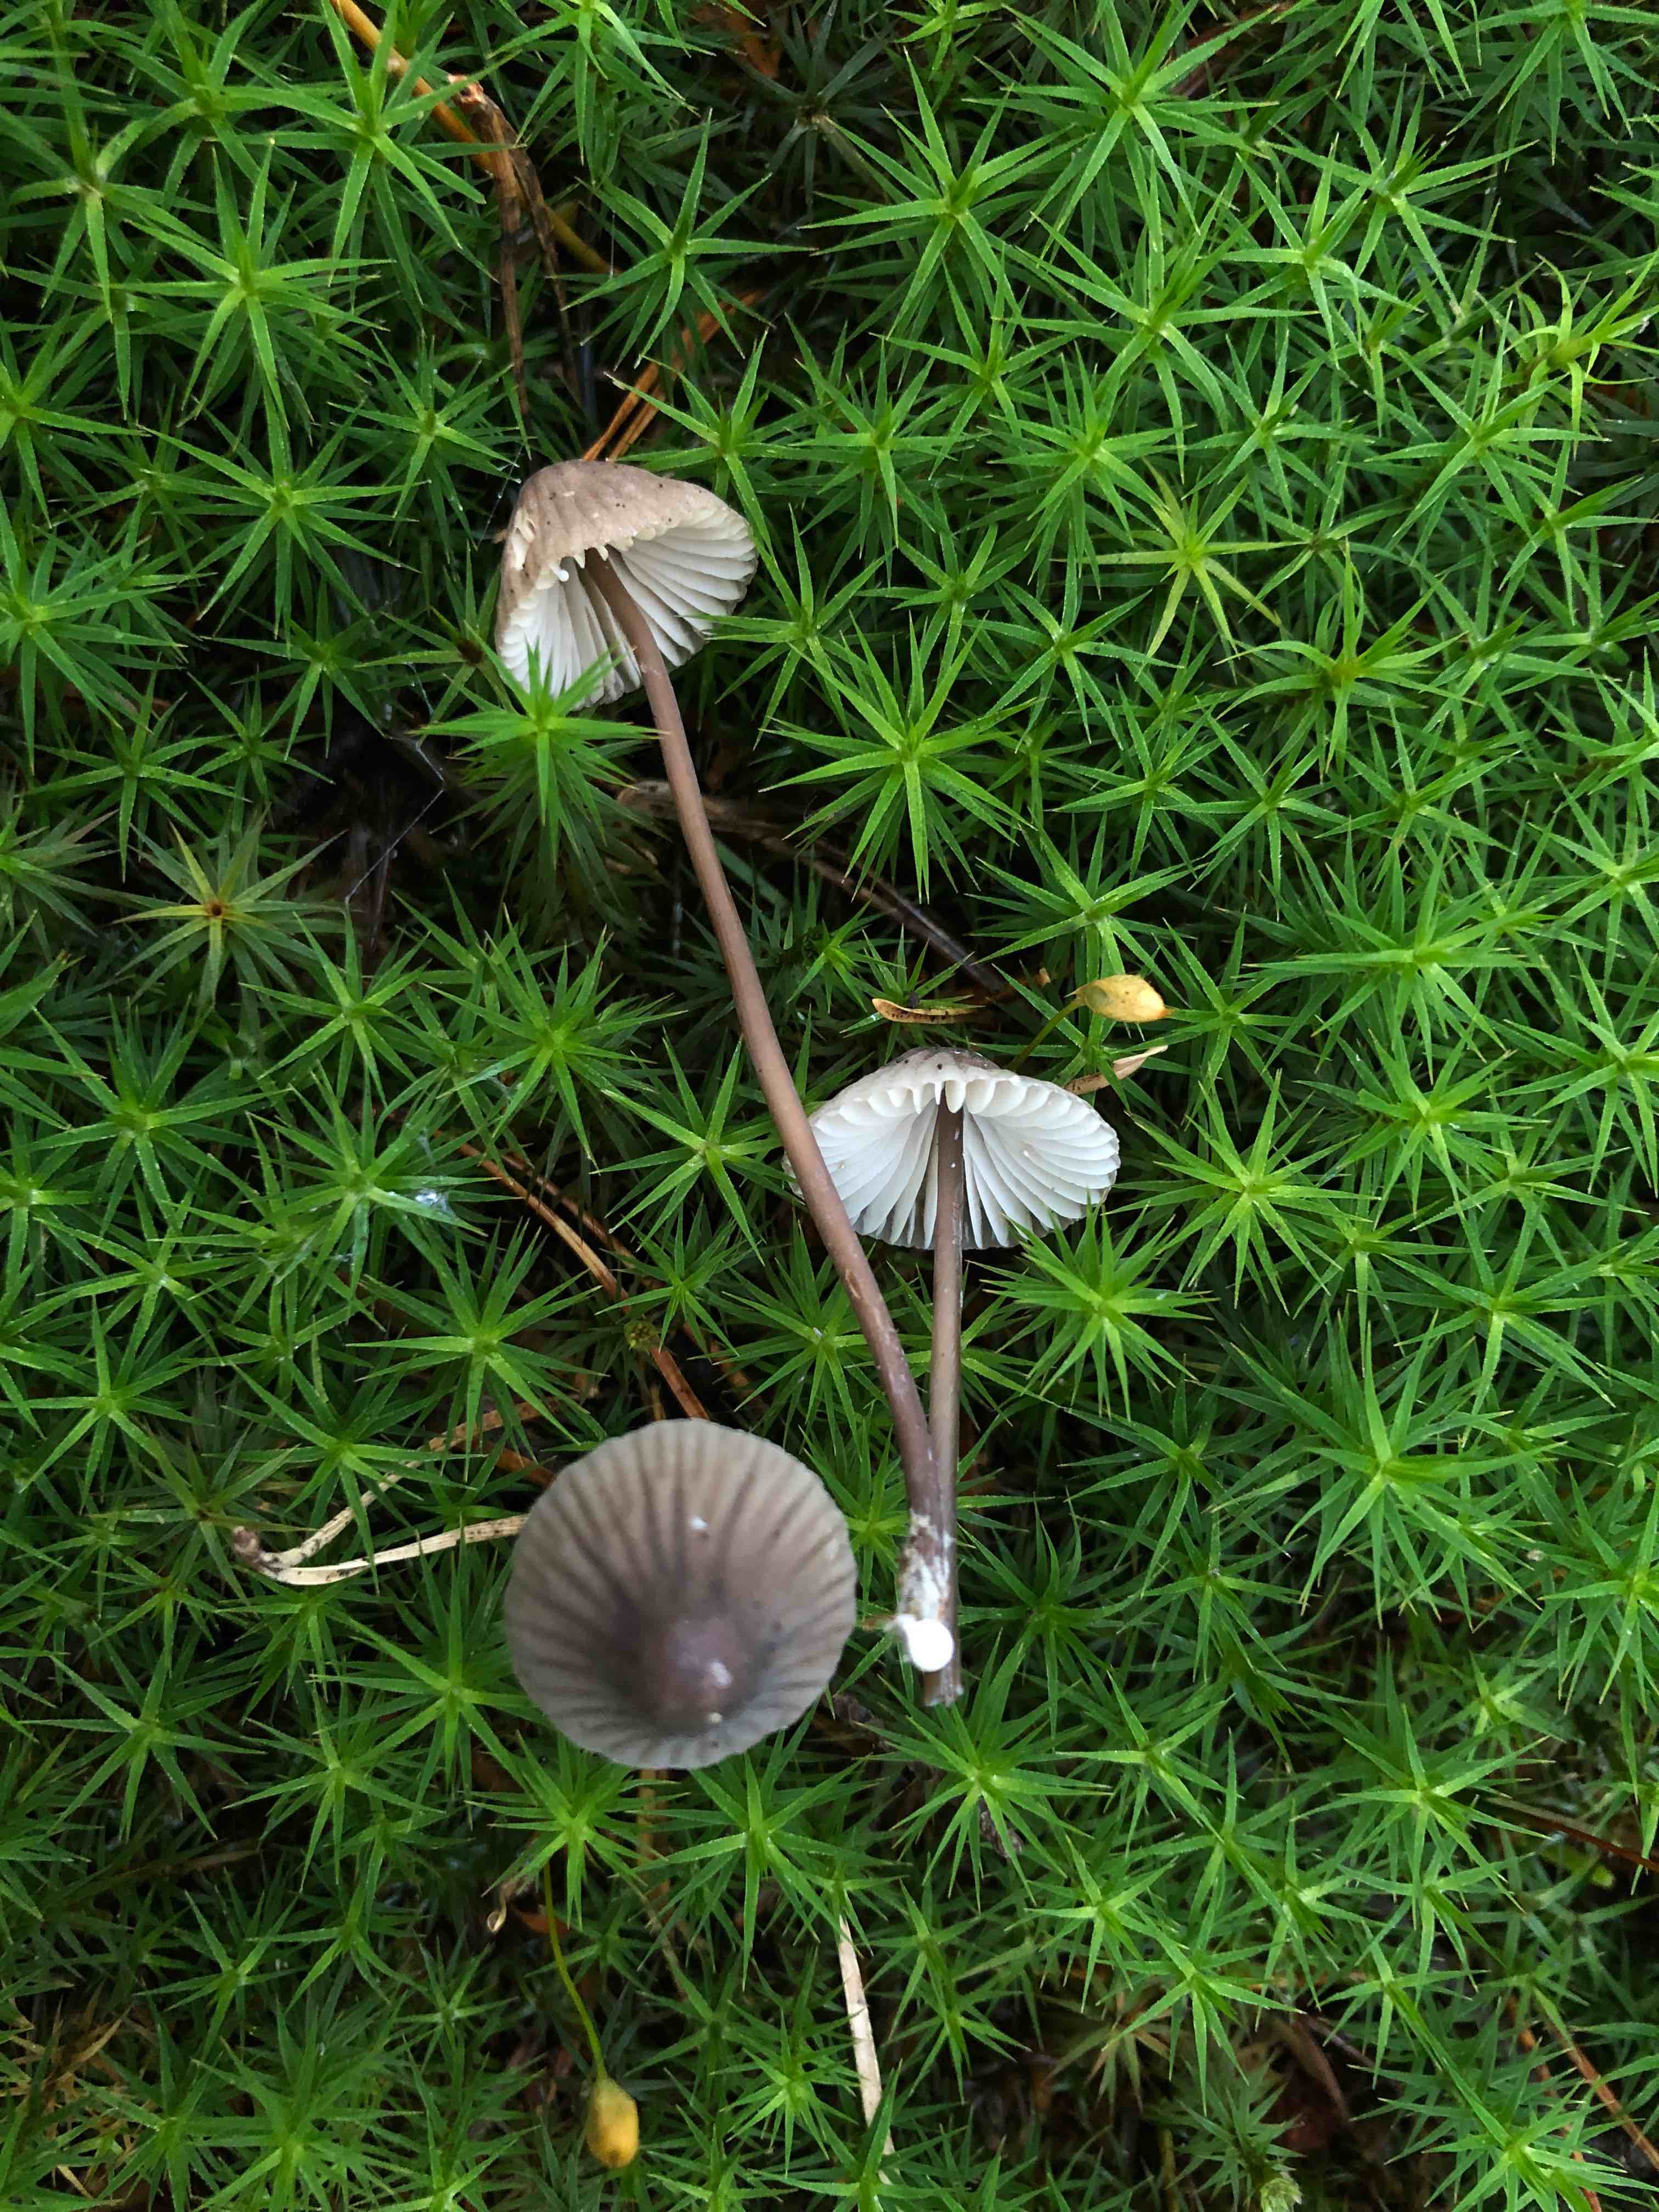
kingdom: Fungi
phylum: Basidiomycota
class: Agaricomycetes
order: Agaricales
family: Mycenaceae
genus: Mycena
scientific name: Mycena galopus
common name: hvidmælket huesvamp
